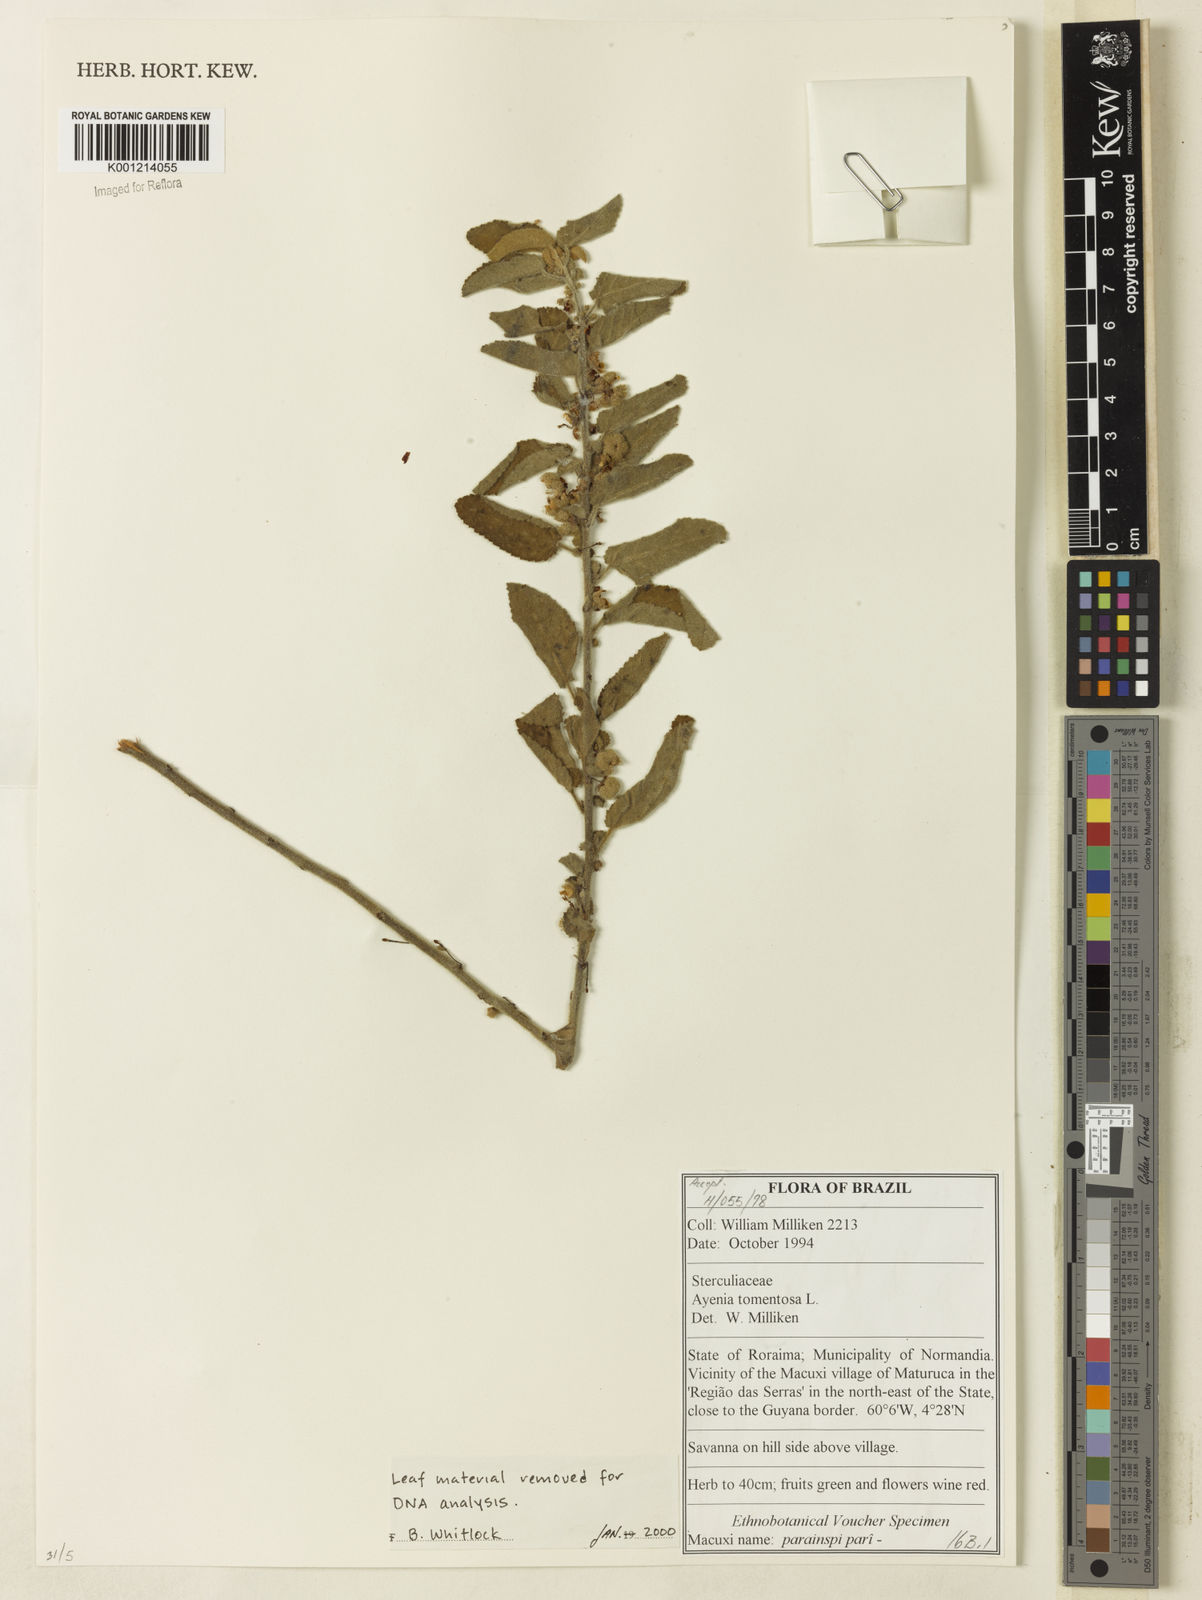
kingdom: Plantae
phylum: Tracheophyta
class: Magnoliopsida
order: Malvales
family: Malvaceae
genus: Ayenia
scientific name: Ayenia tomentosa
